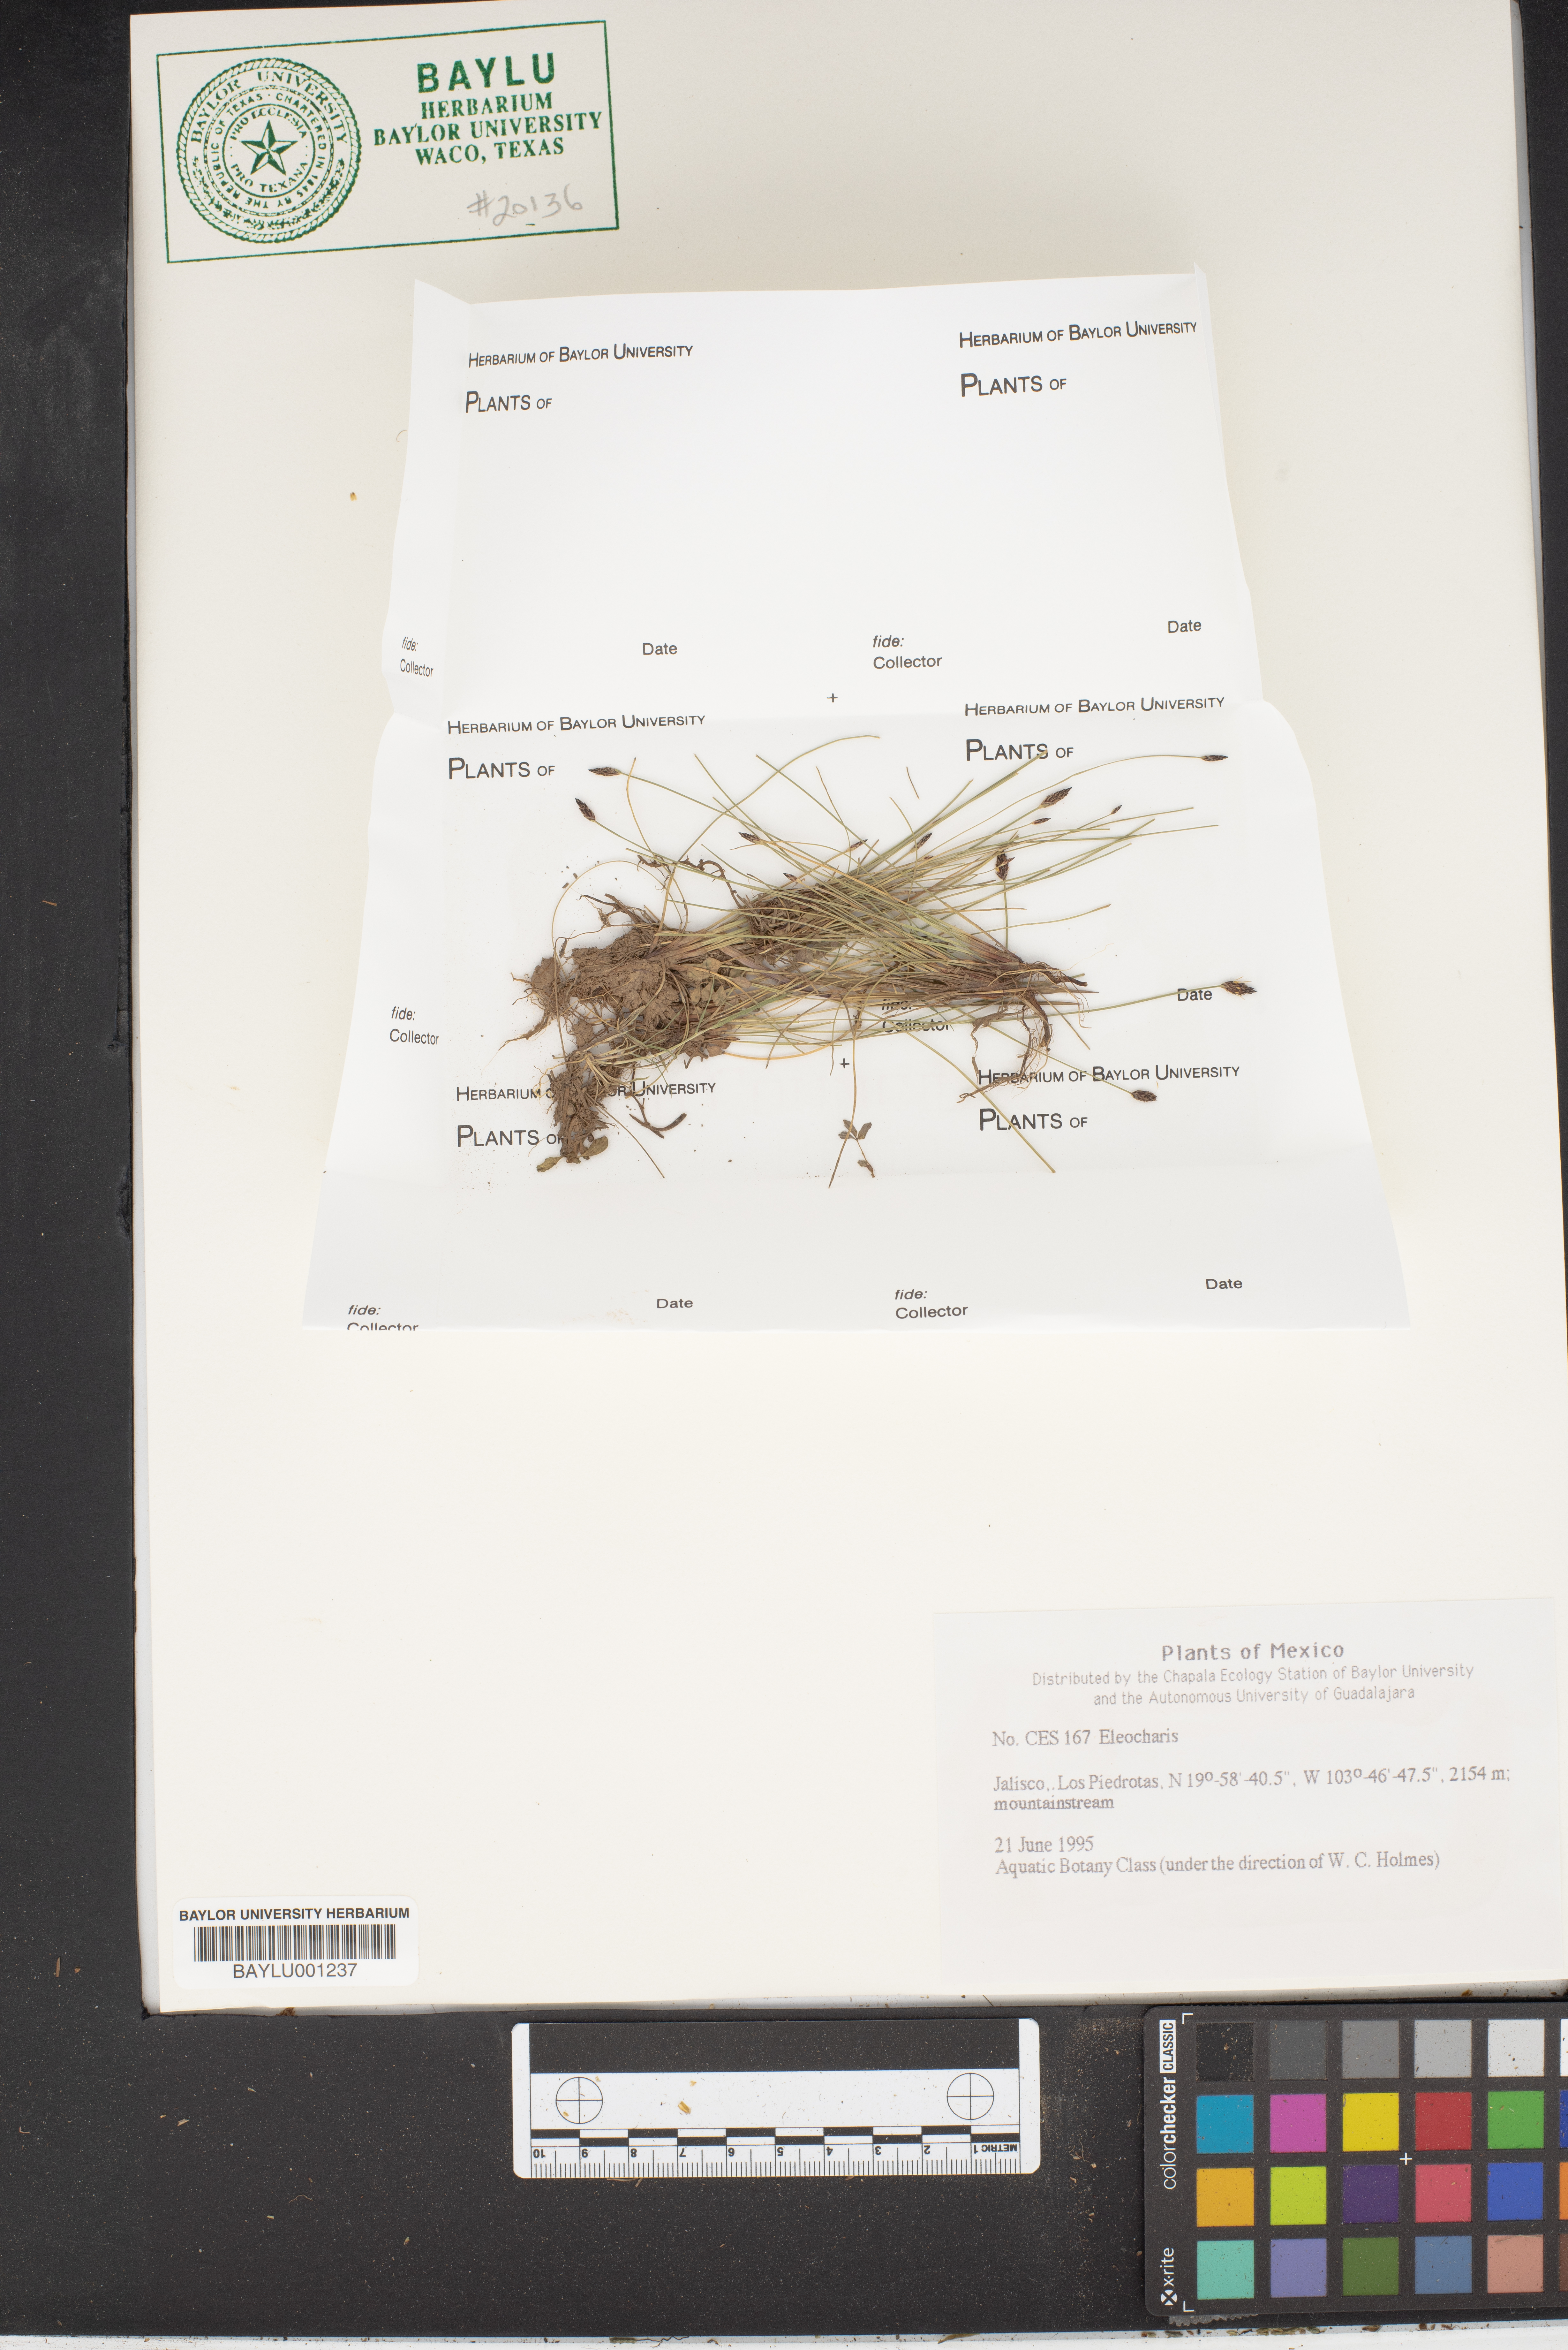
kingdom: Plantae
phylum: Tracheophyta
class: Liliopsida
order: Poales
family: Cyperaceae
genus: Eleocharis
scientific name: Eleocharis
